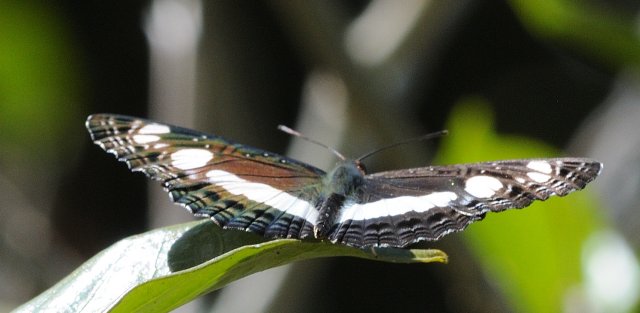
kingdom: Animalia
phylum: Arthropoda
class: Insecta
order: Lepidoptera
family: Nymphalidae
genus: Neptis
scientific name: Neptis saclava
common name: Spotted Sailer
